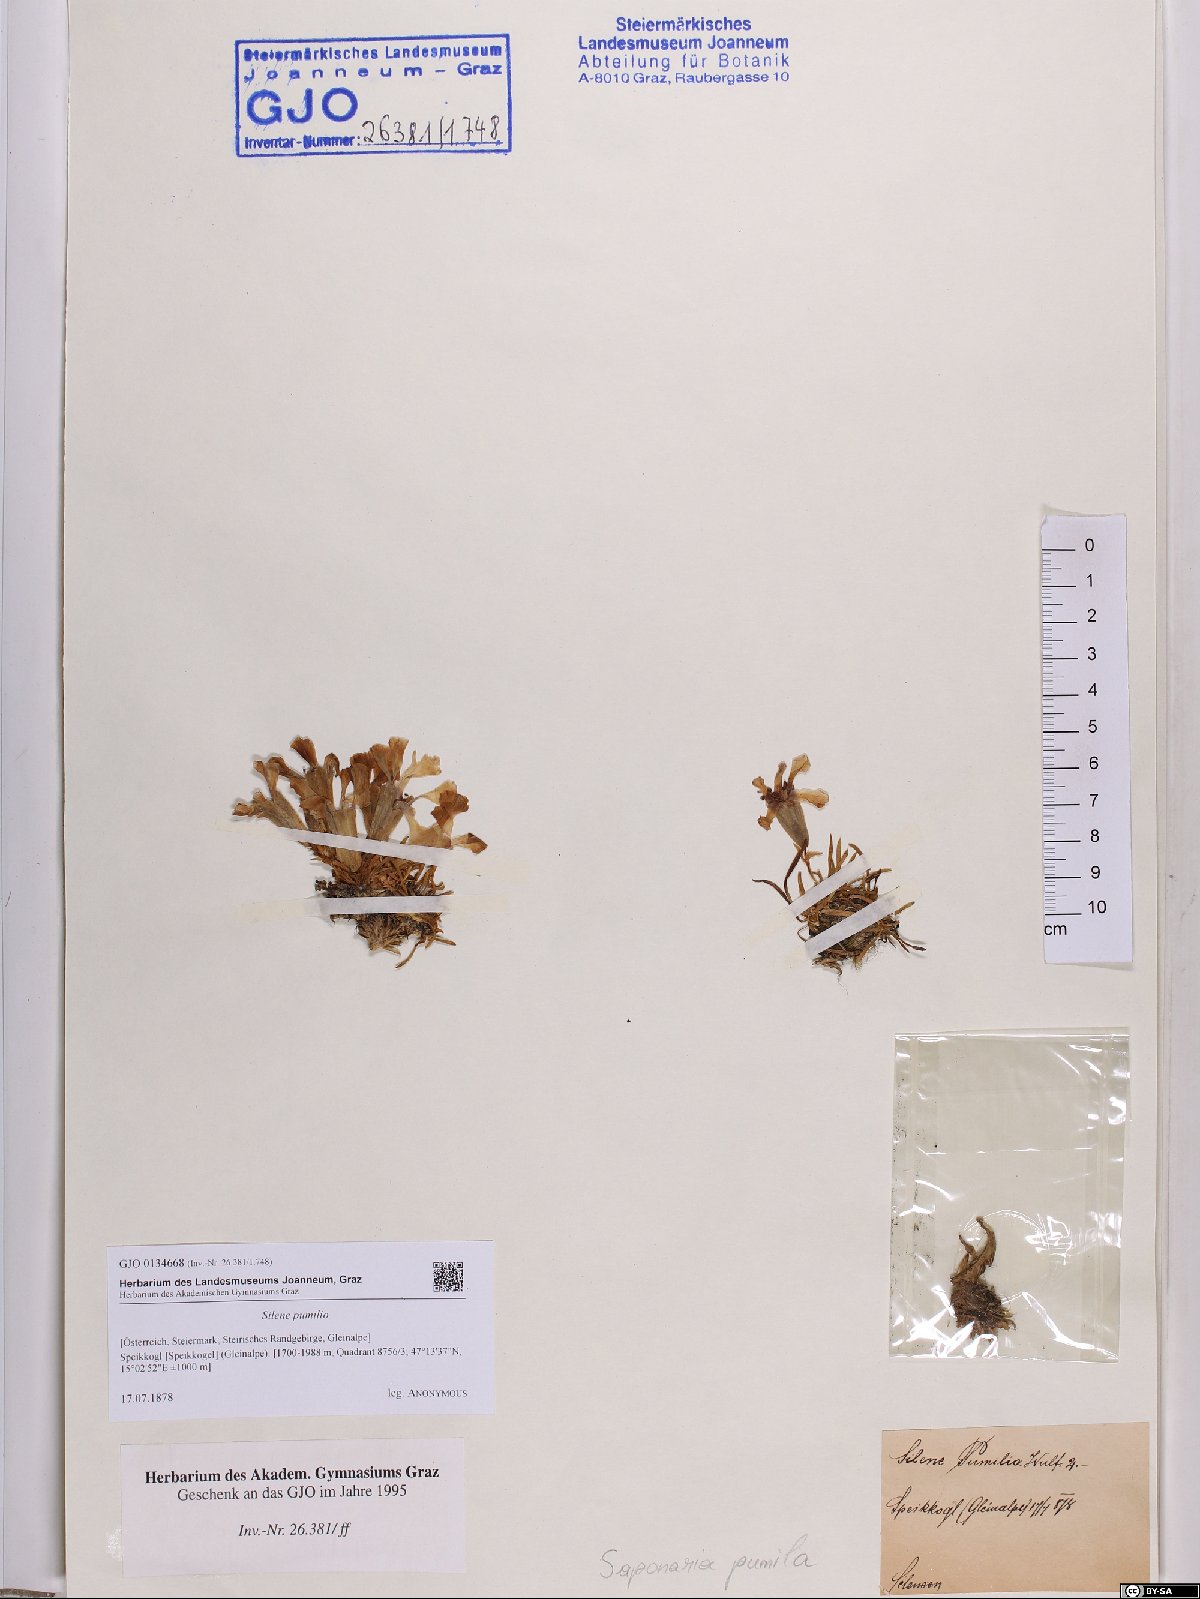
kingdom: Plantae
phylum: Tracheophyta
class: Magnoliopsida
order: Caryophyllales
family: Caryophyllaceae
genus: Saponaria
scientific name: Saponaria pumila
